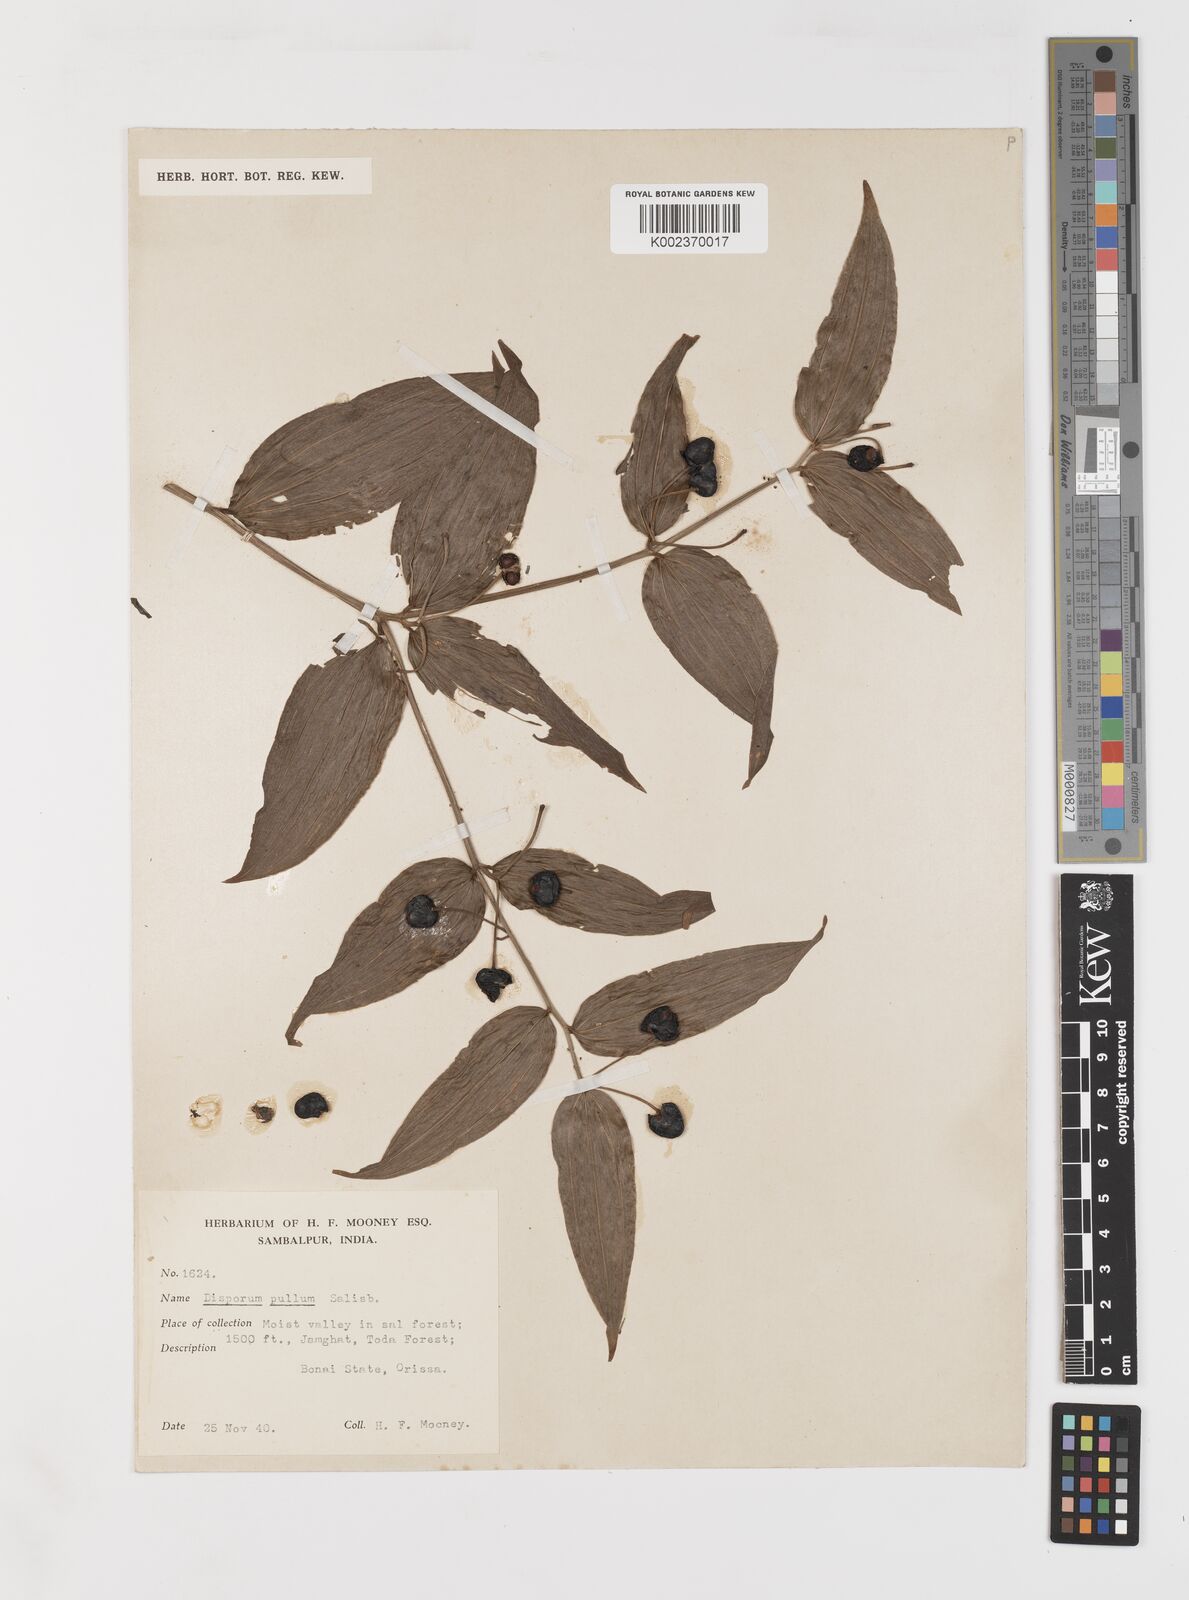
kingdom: Plantae
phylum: Tracheophyta
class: Liliopsida
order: Liliales
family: Colchicaceae
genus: Disporum
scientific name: Disporum cantoniense
